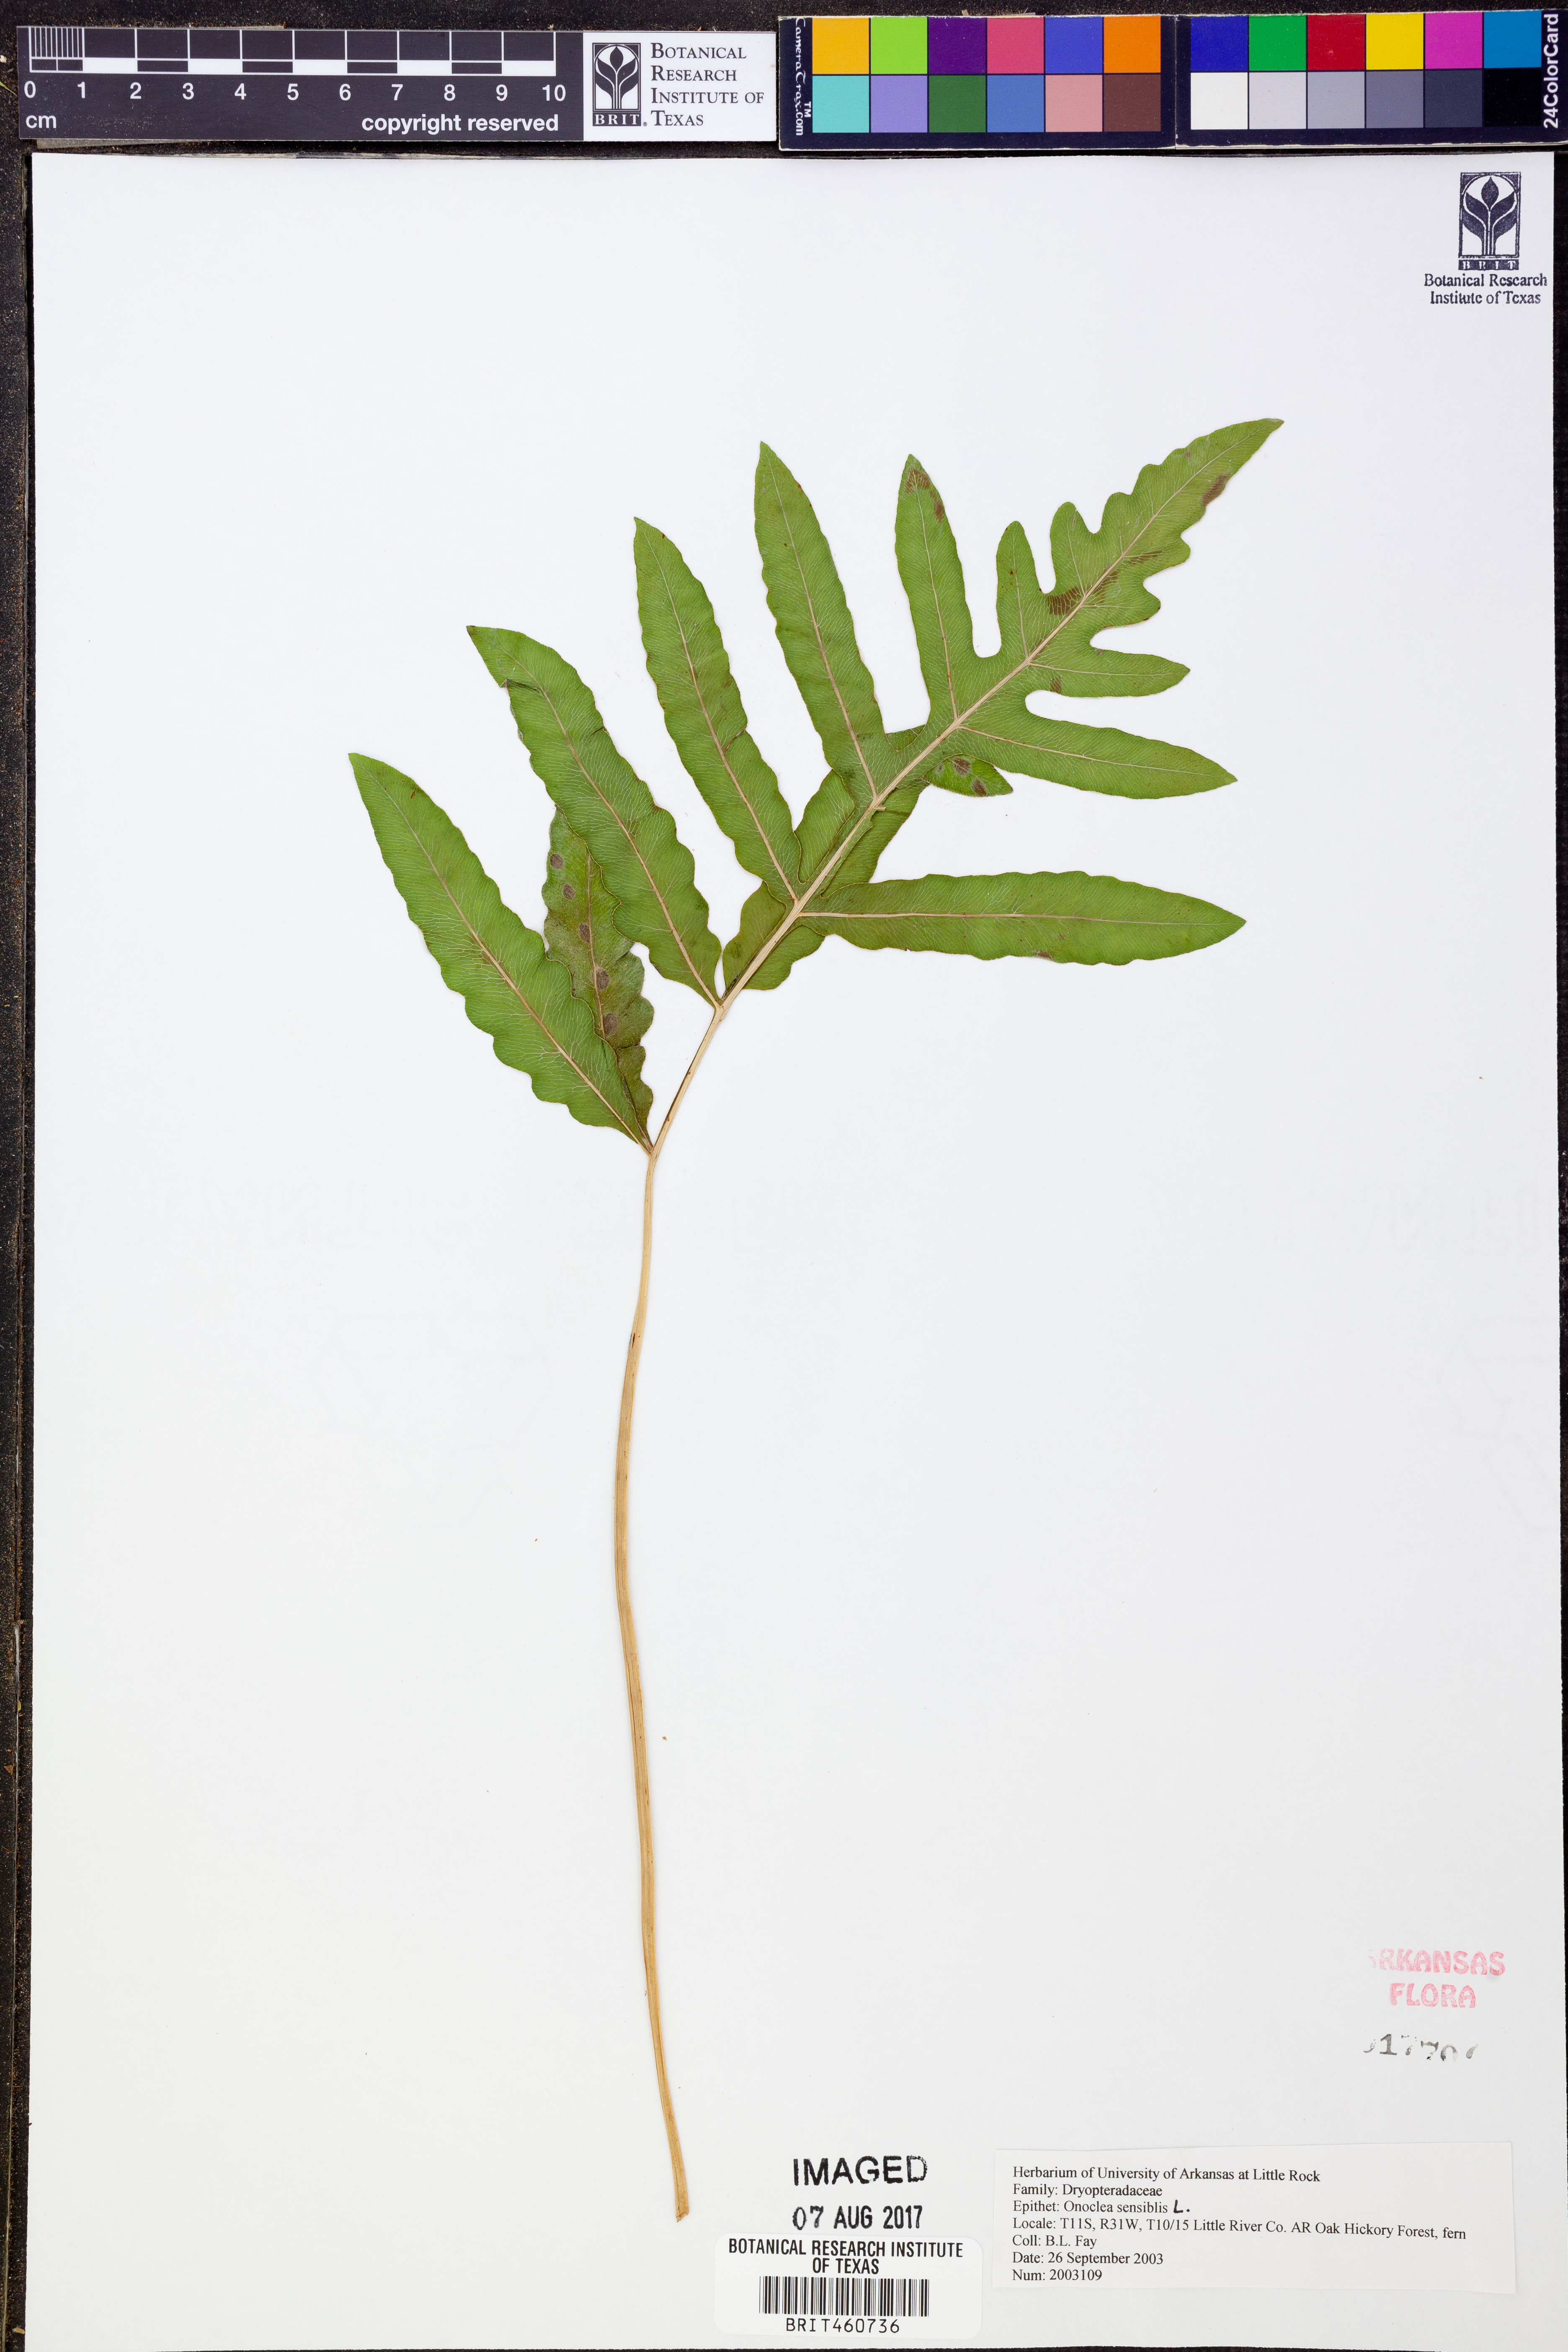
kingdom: Plantae
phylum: Tracheophyta
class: Polypodiopsida
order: Polypodiales
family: Onocleaceae
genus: Onoclea
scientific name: Onoclea sensibilis
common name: Sensitive fern
